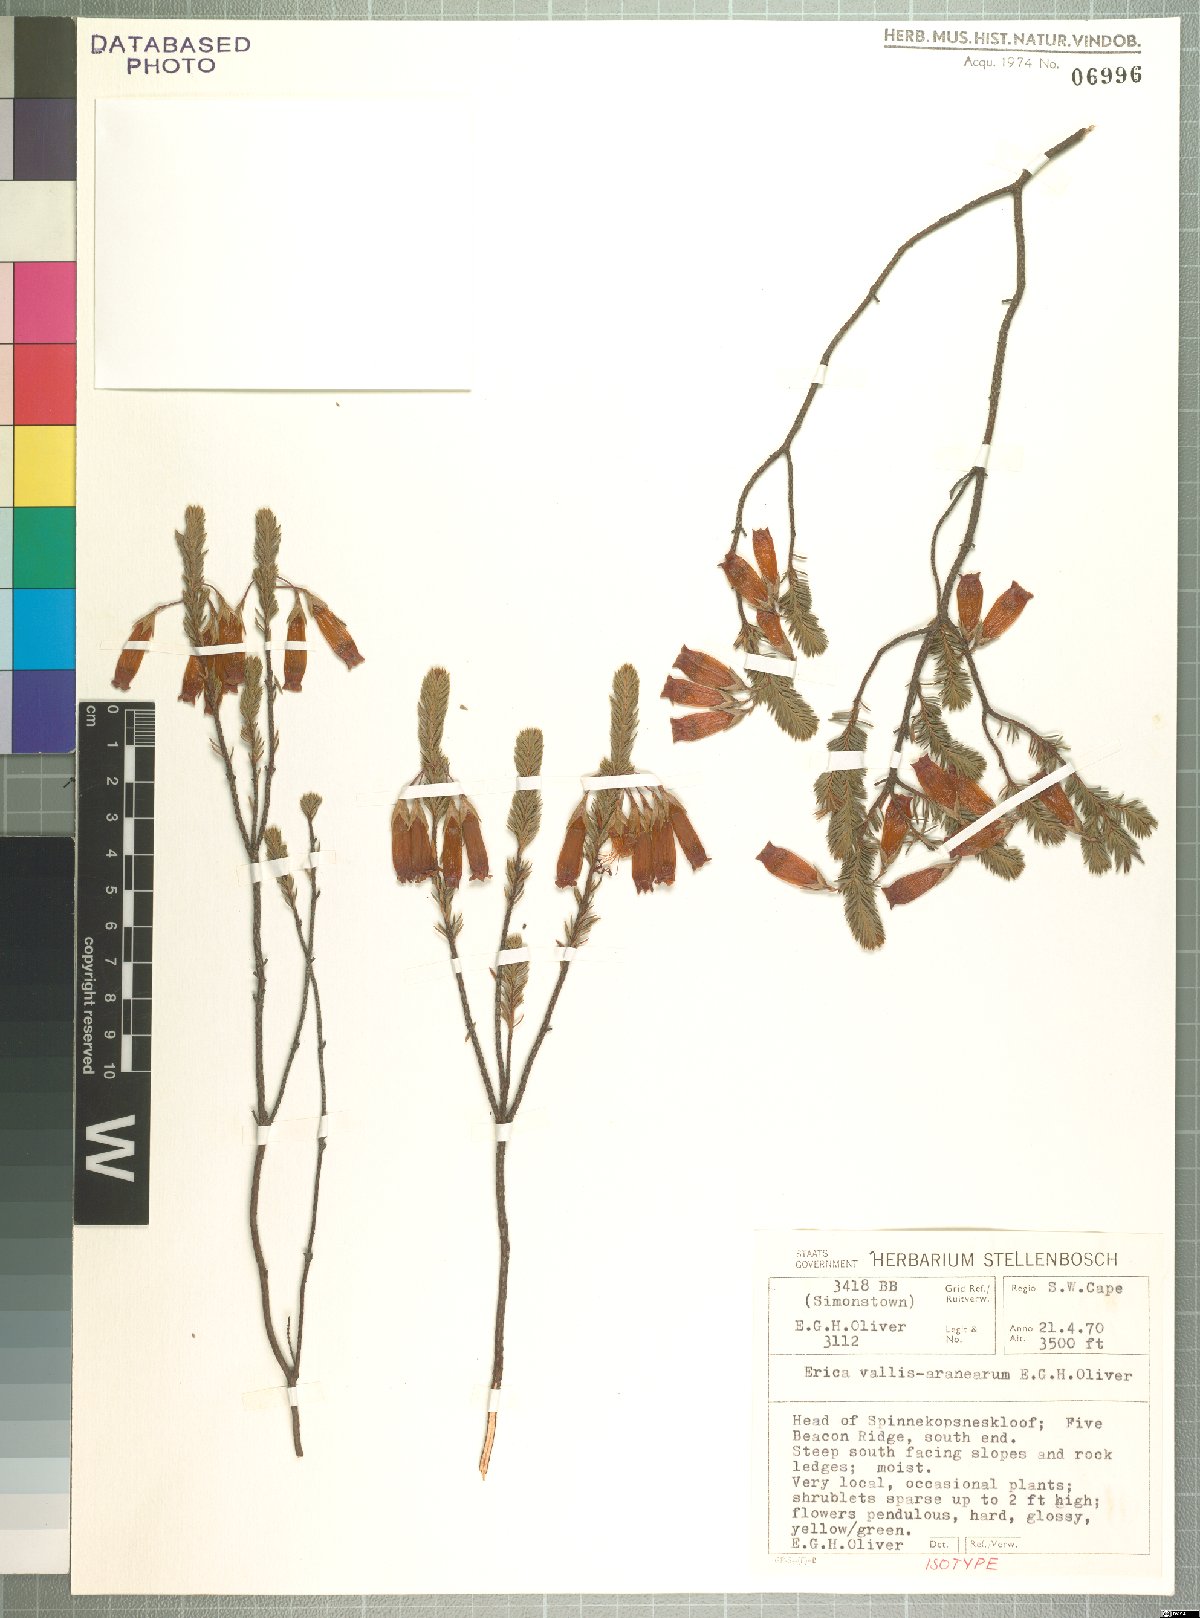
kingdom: Plantae
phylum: Tracheophyta
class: Magnoliopsida
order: Ericales
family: Ericaceae
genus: Erica
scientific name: Erica vallis-aranearum
